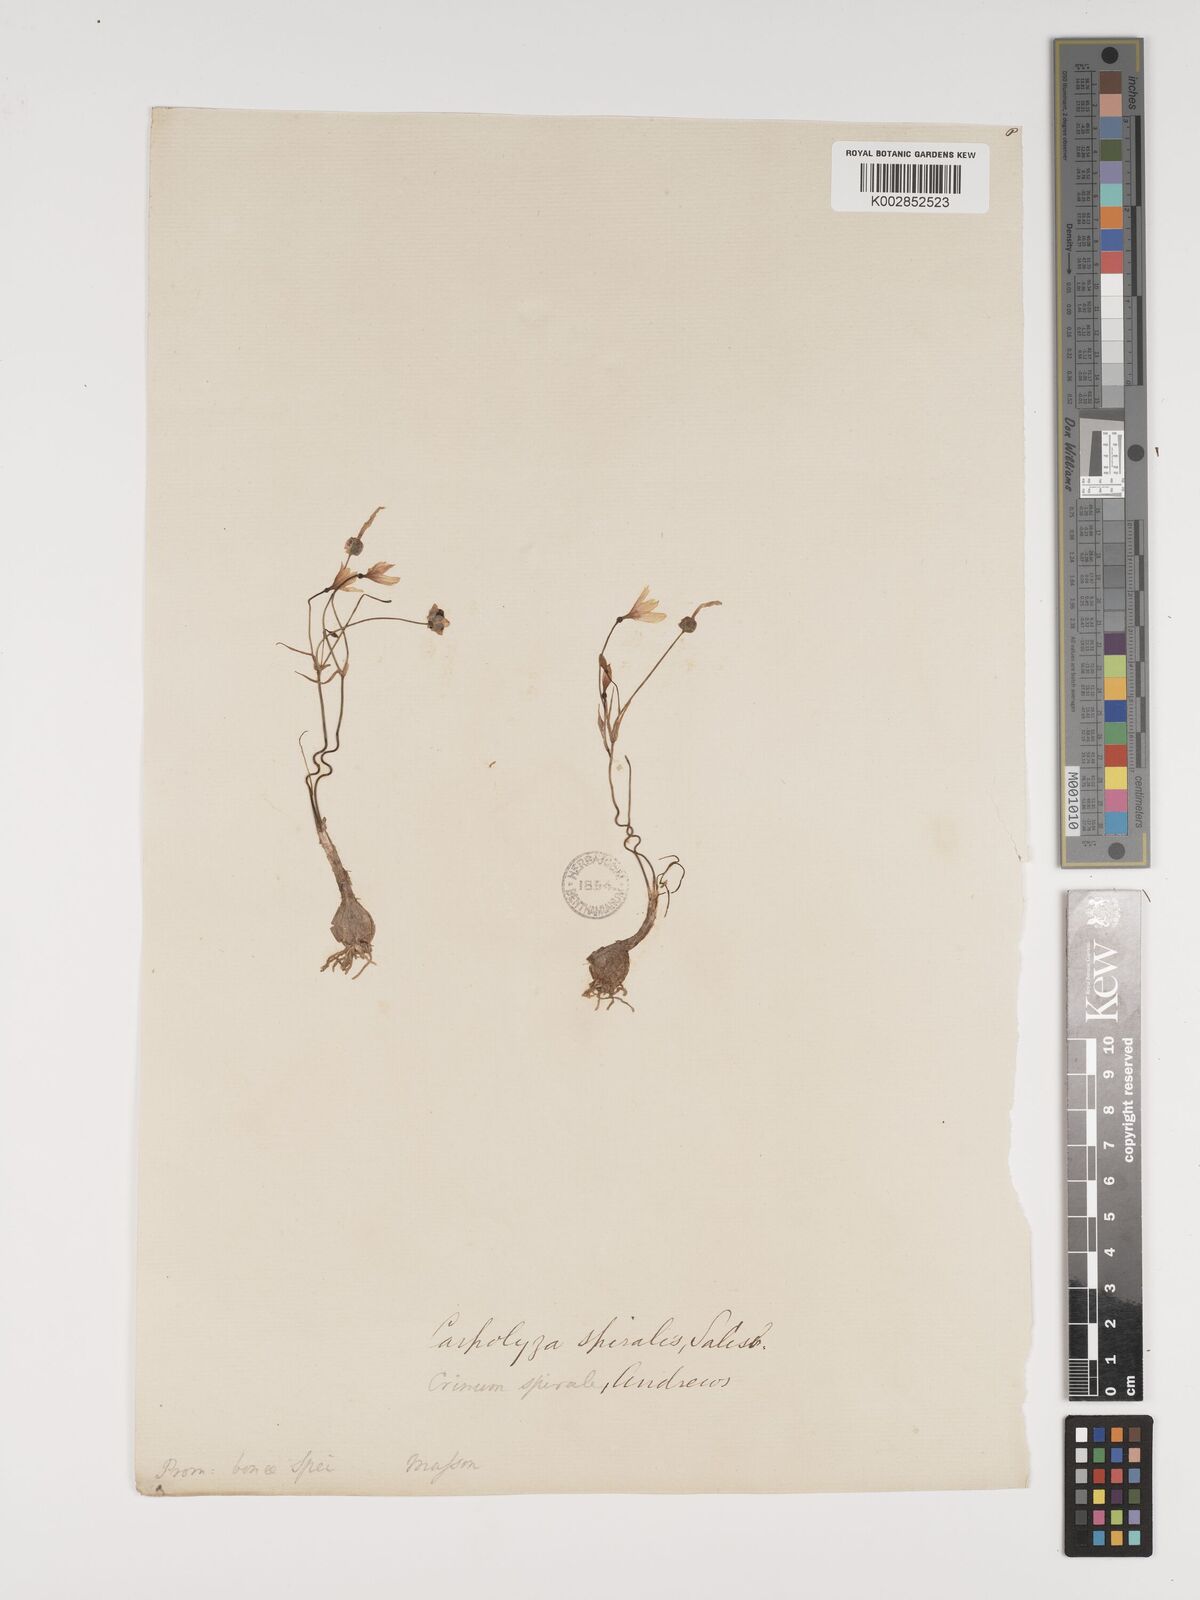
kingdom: Plantae
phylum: Tracheophyta
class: Liliopsida
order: Asparagales
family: Amaryllidaceae
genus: Strumaria
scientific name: Strumaria spiralis
